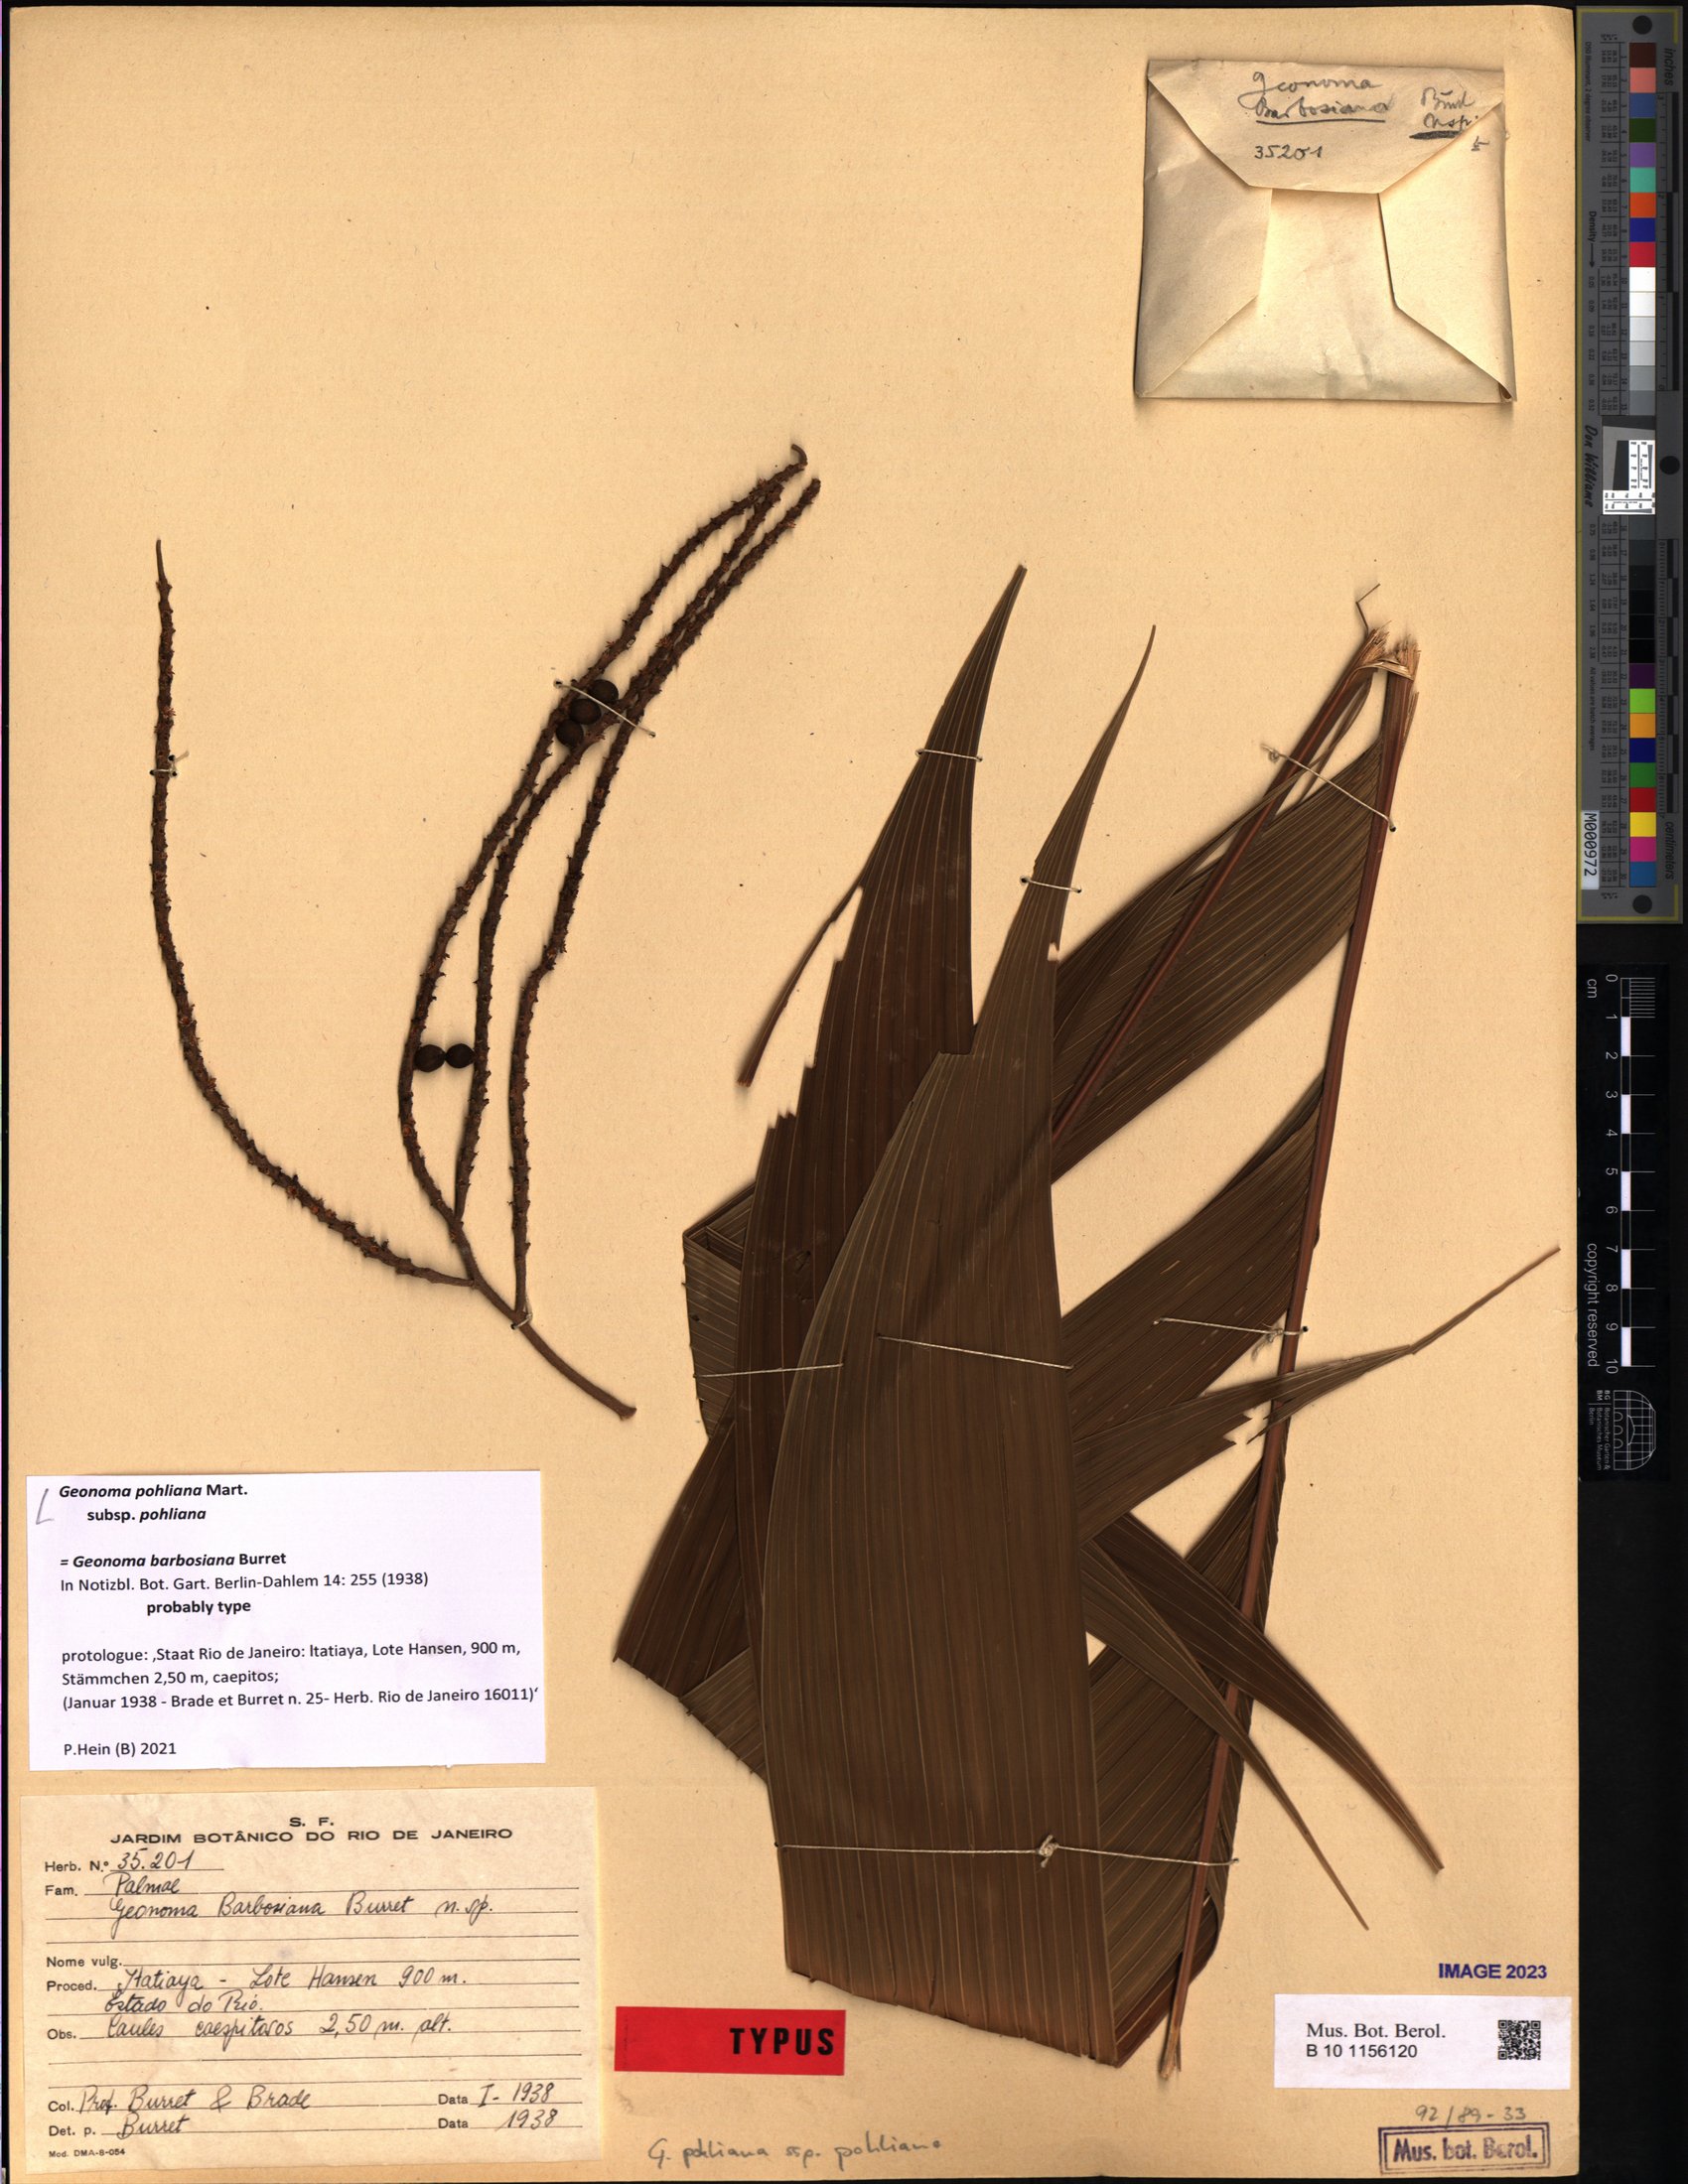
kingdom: Plantae
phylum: Tracheophyta
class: Liliopsida
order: Arecales
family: Arecaceae
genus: Geonoma
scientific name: Geonoma pohliana
